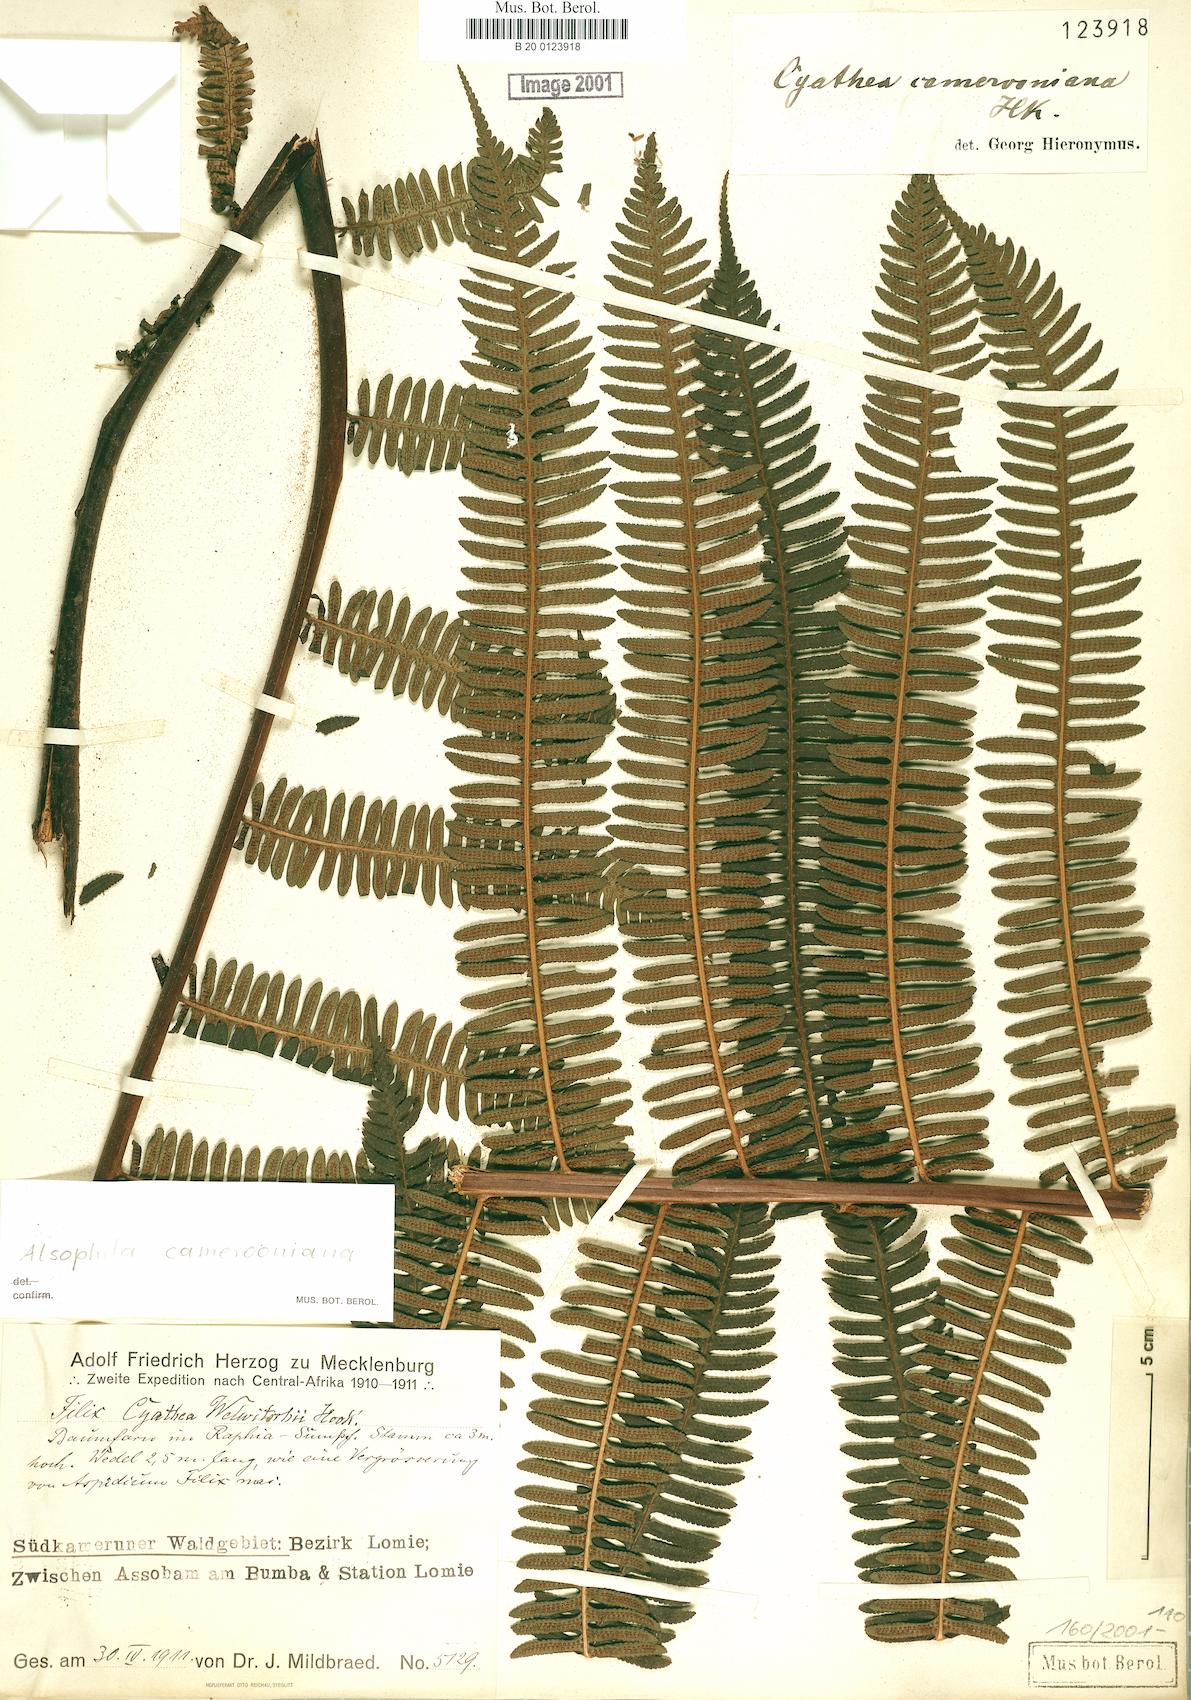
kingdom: Plantae
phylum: Tracheophyta
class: Polypodiopsida
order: Cyatheales
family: Cyatheaceae
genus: Alsophila
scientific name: Alsophila camerooniana
